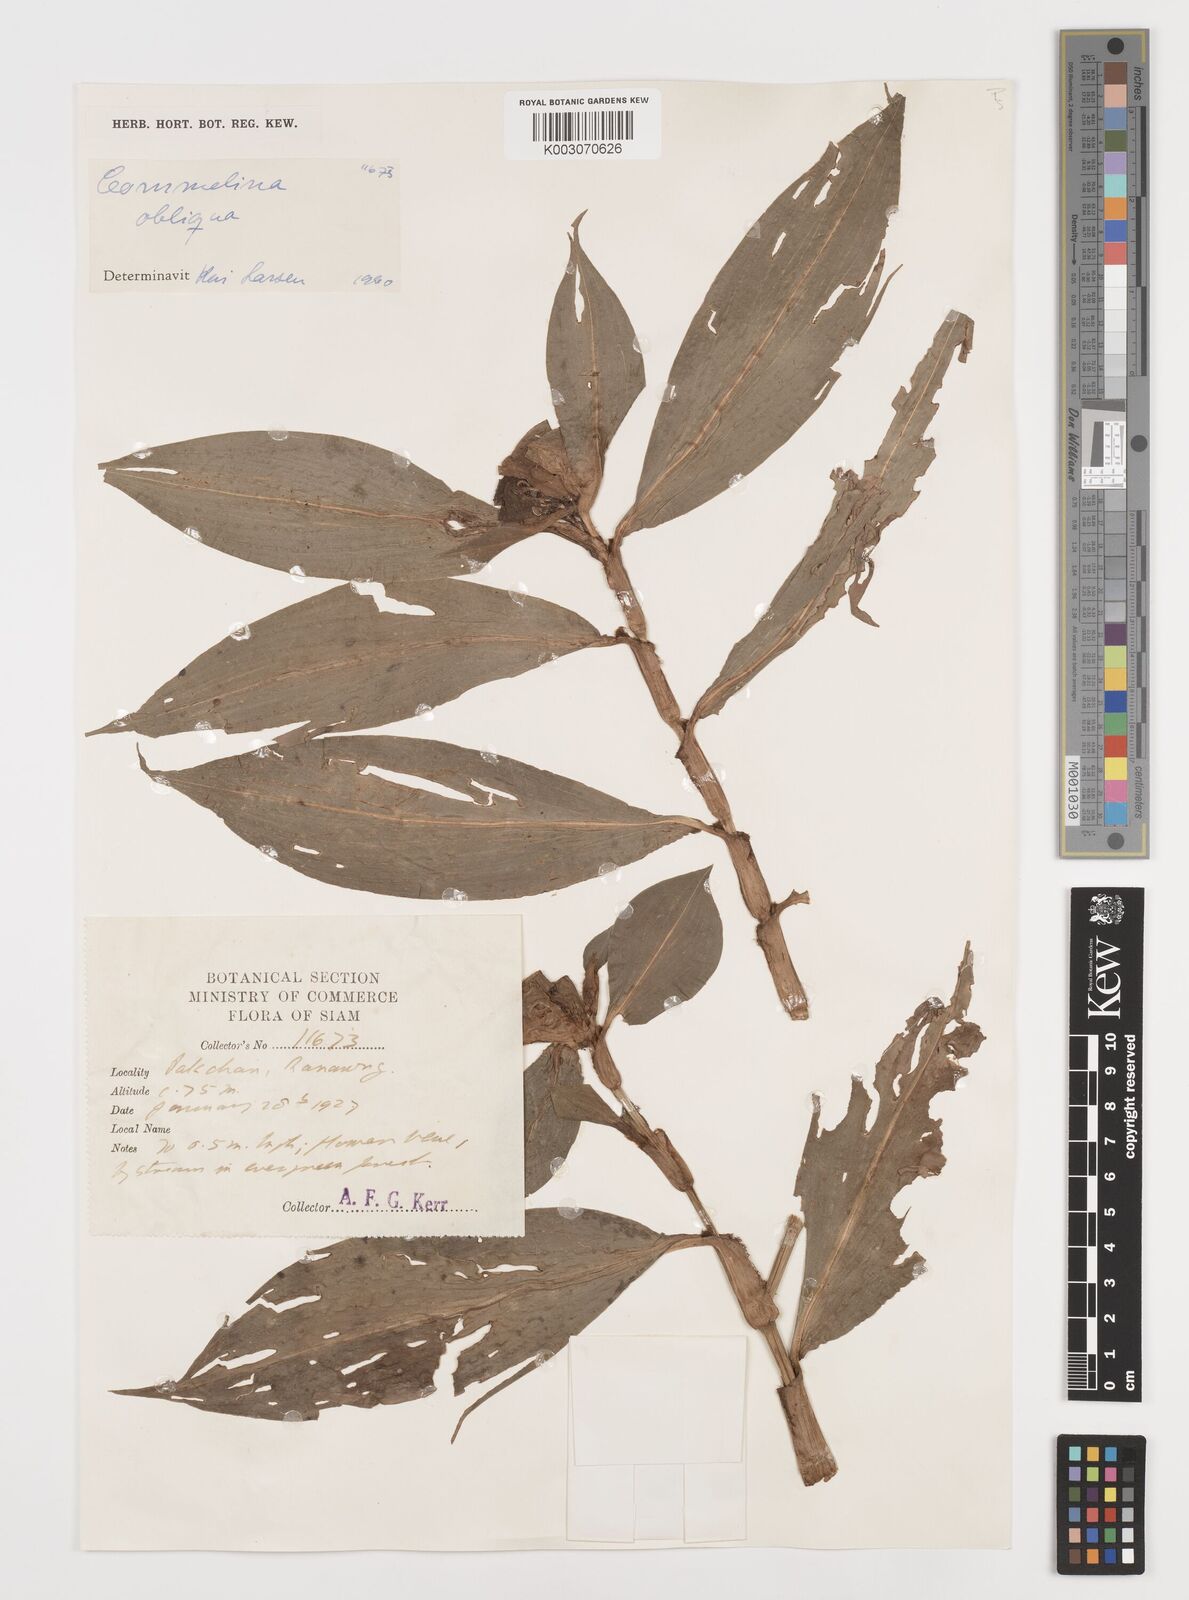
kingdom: Plantae
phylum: Tracheophyta
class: Liliopsida
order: Commelinales
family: Commelinaceae
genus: Commelina
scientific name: Commelina paludosa
